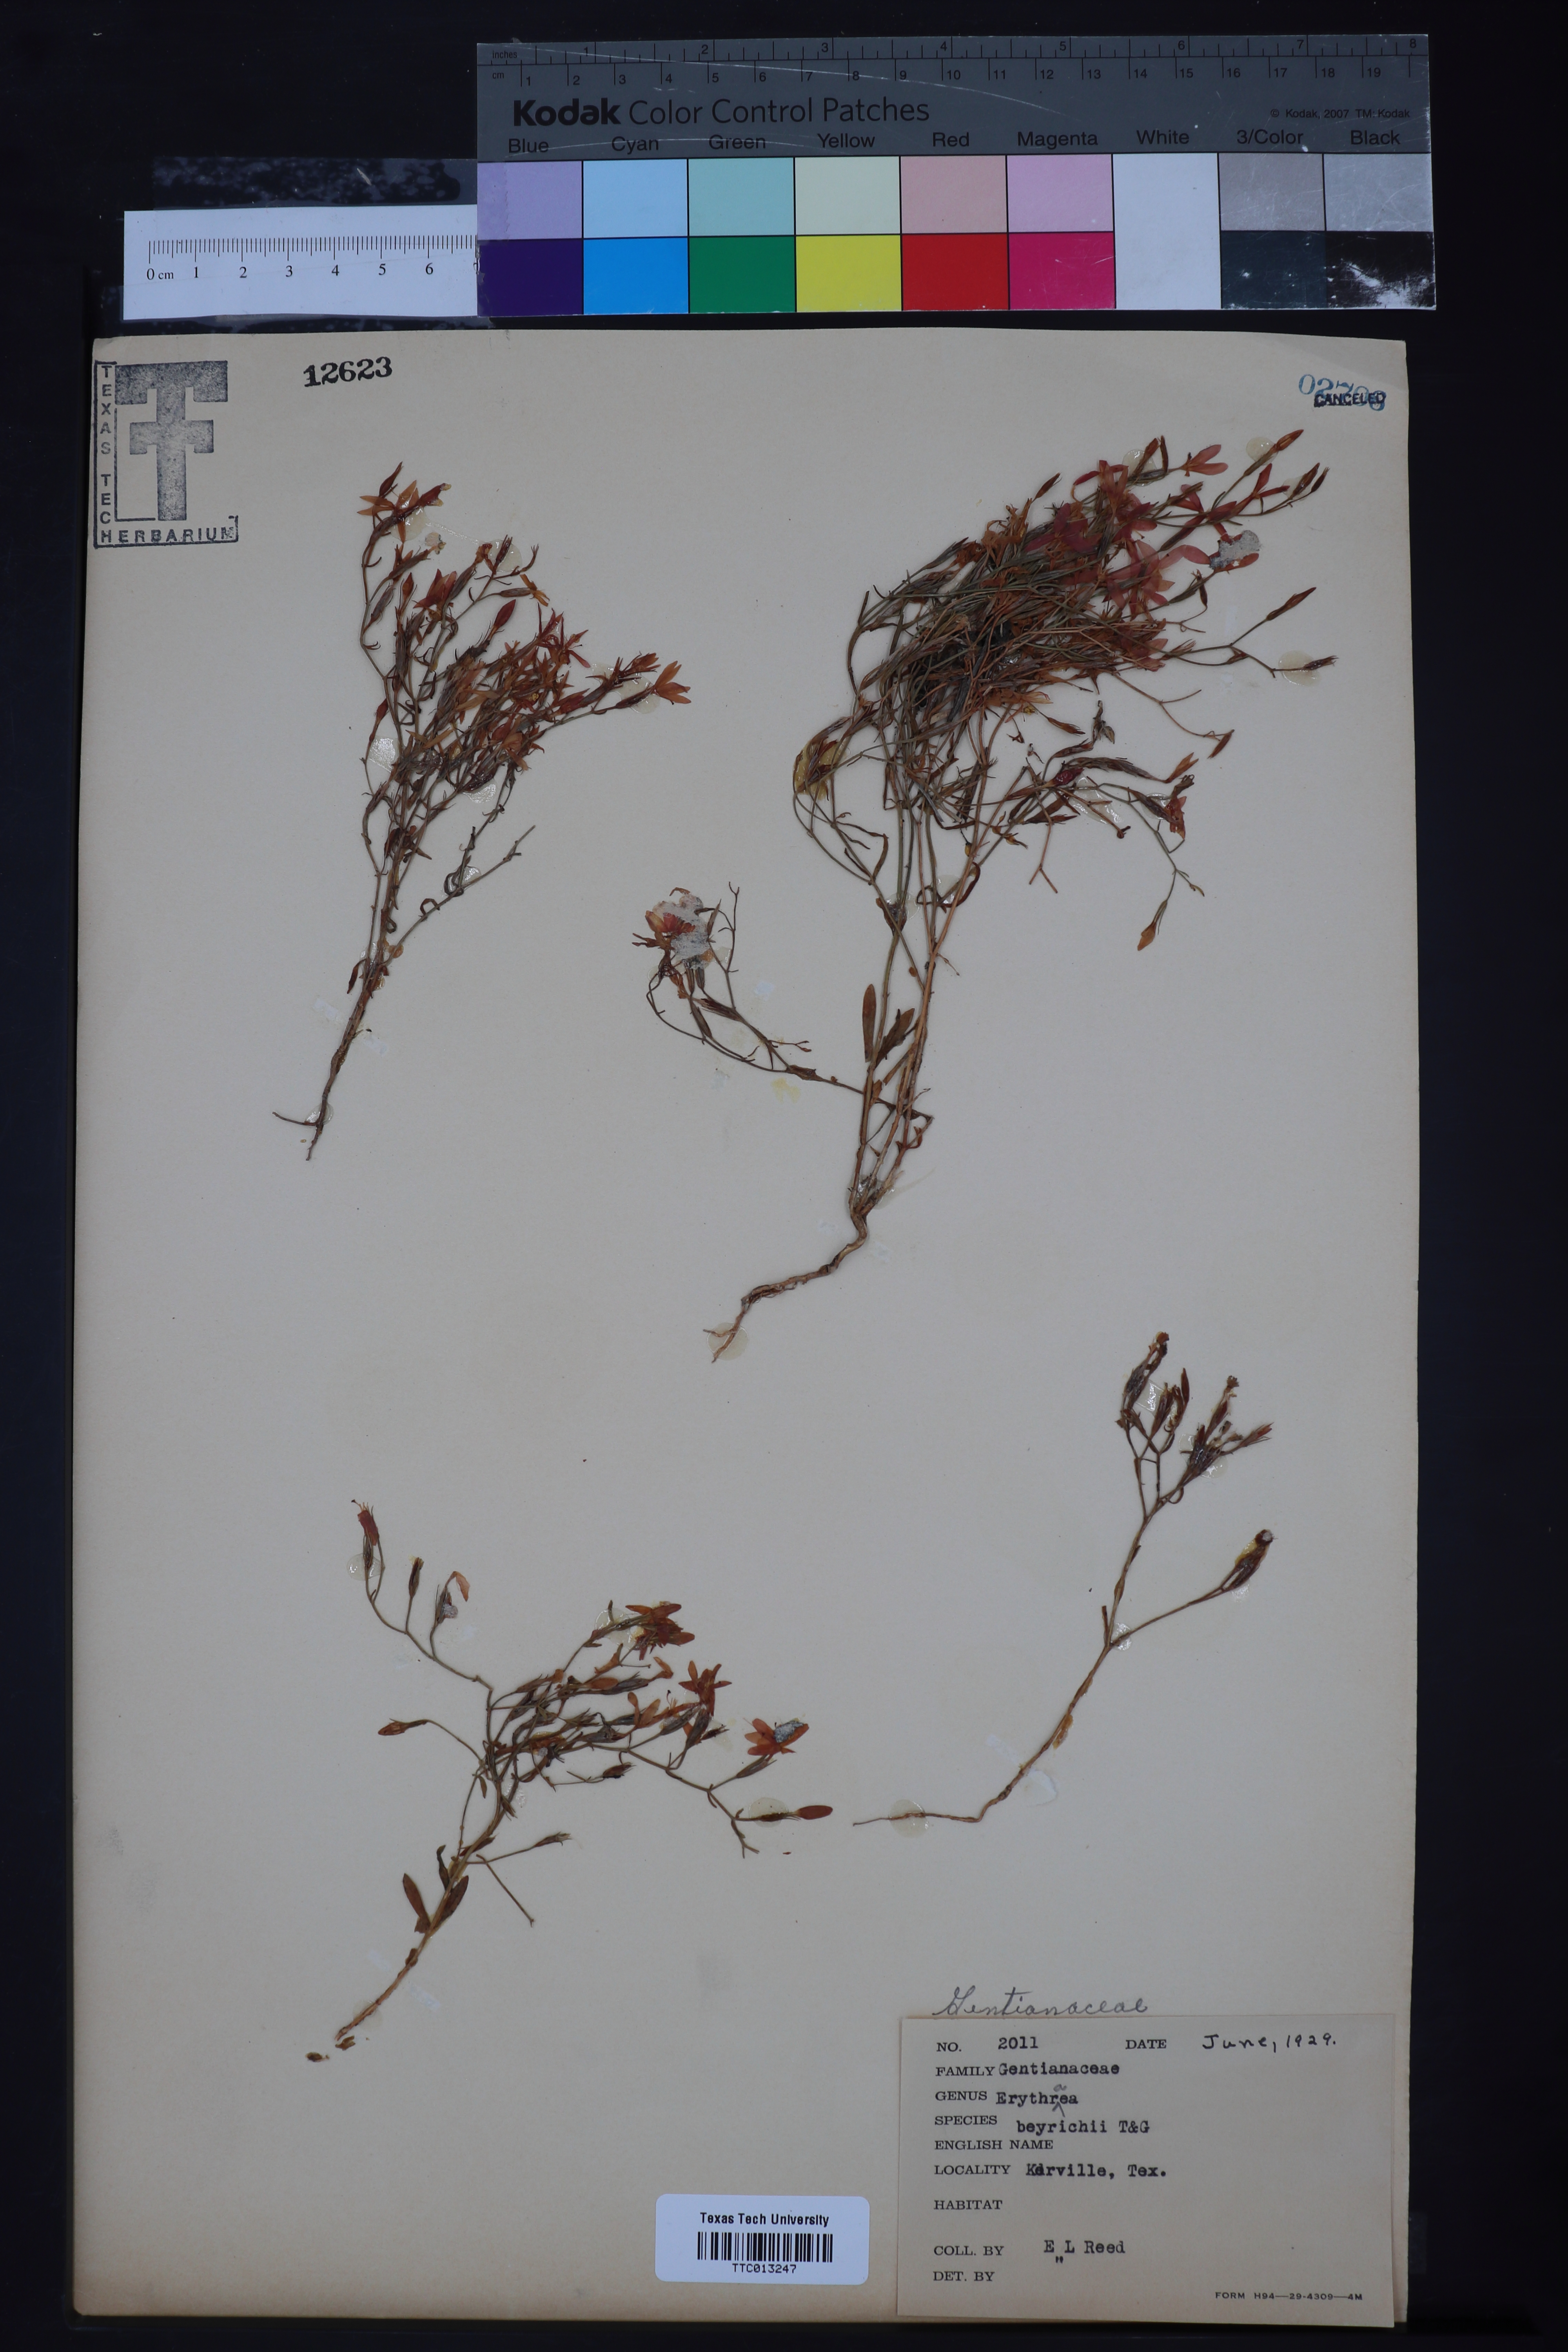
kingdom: Plantae
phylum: Tracheophyta
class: Magnoliopsida
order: Gentianales
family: Gentianaceae
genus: Zeltnera
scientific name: Zeltnera beyrichii
